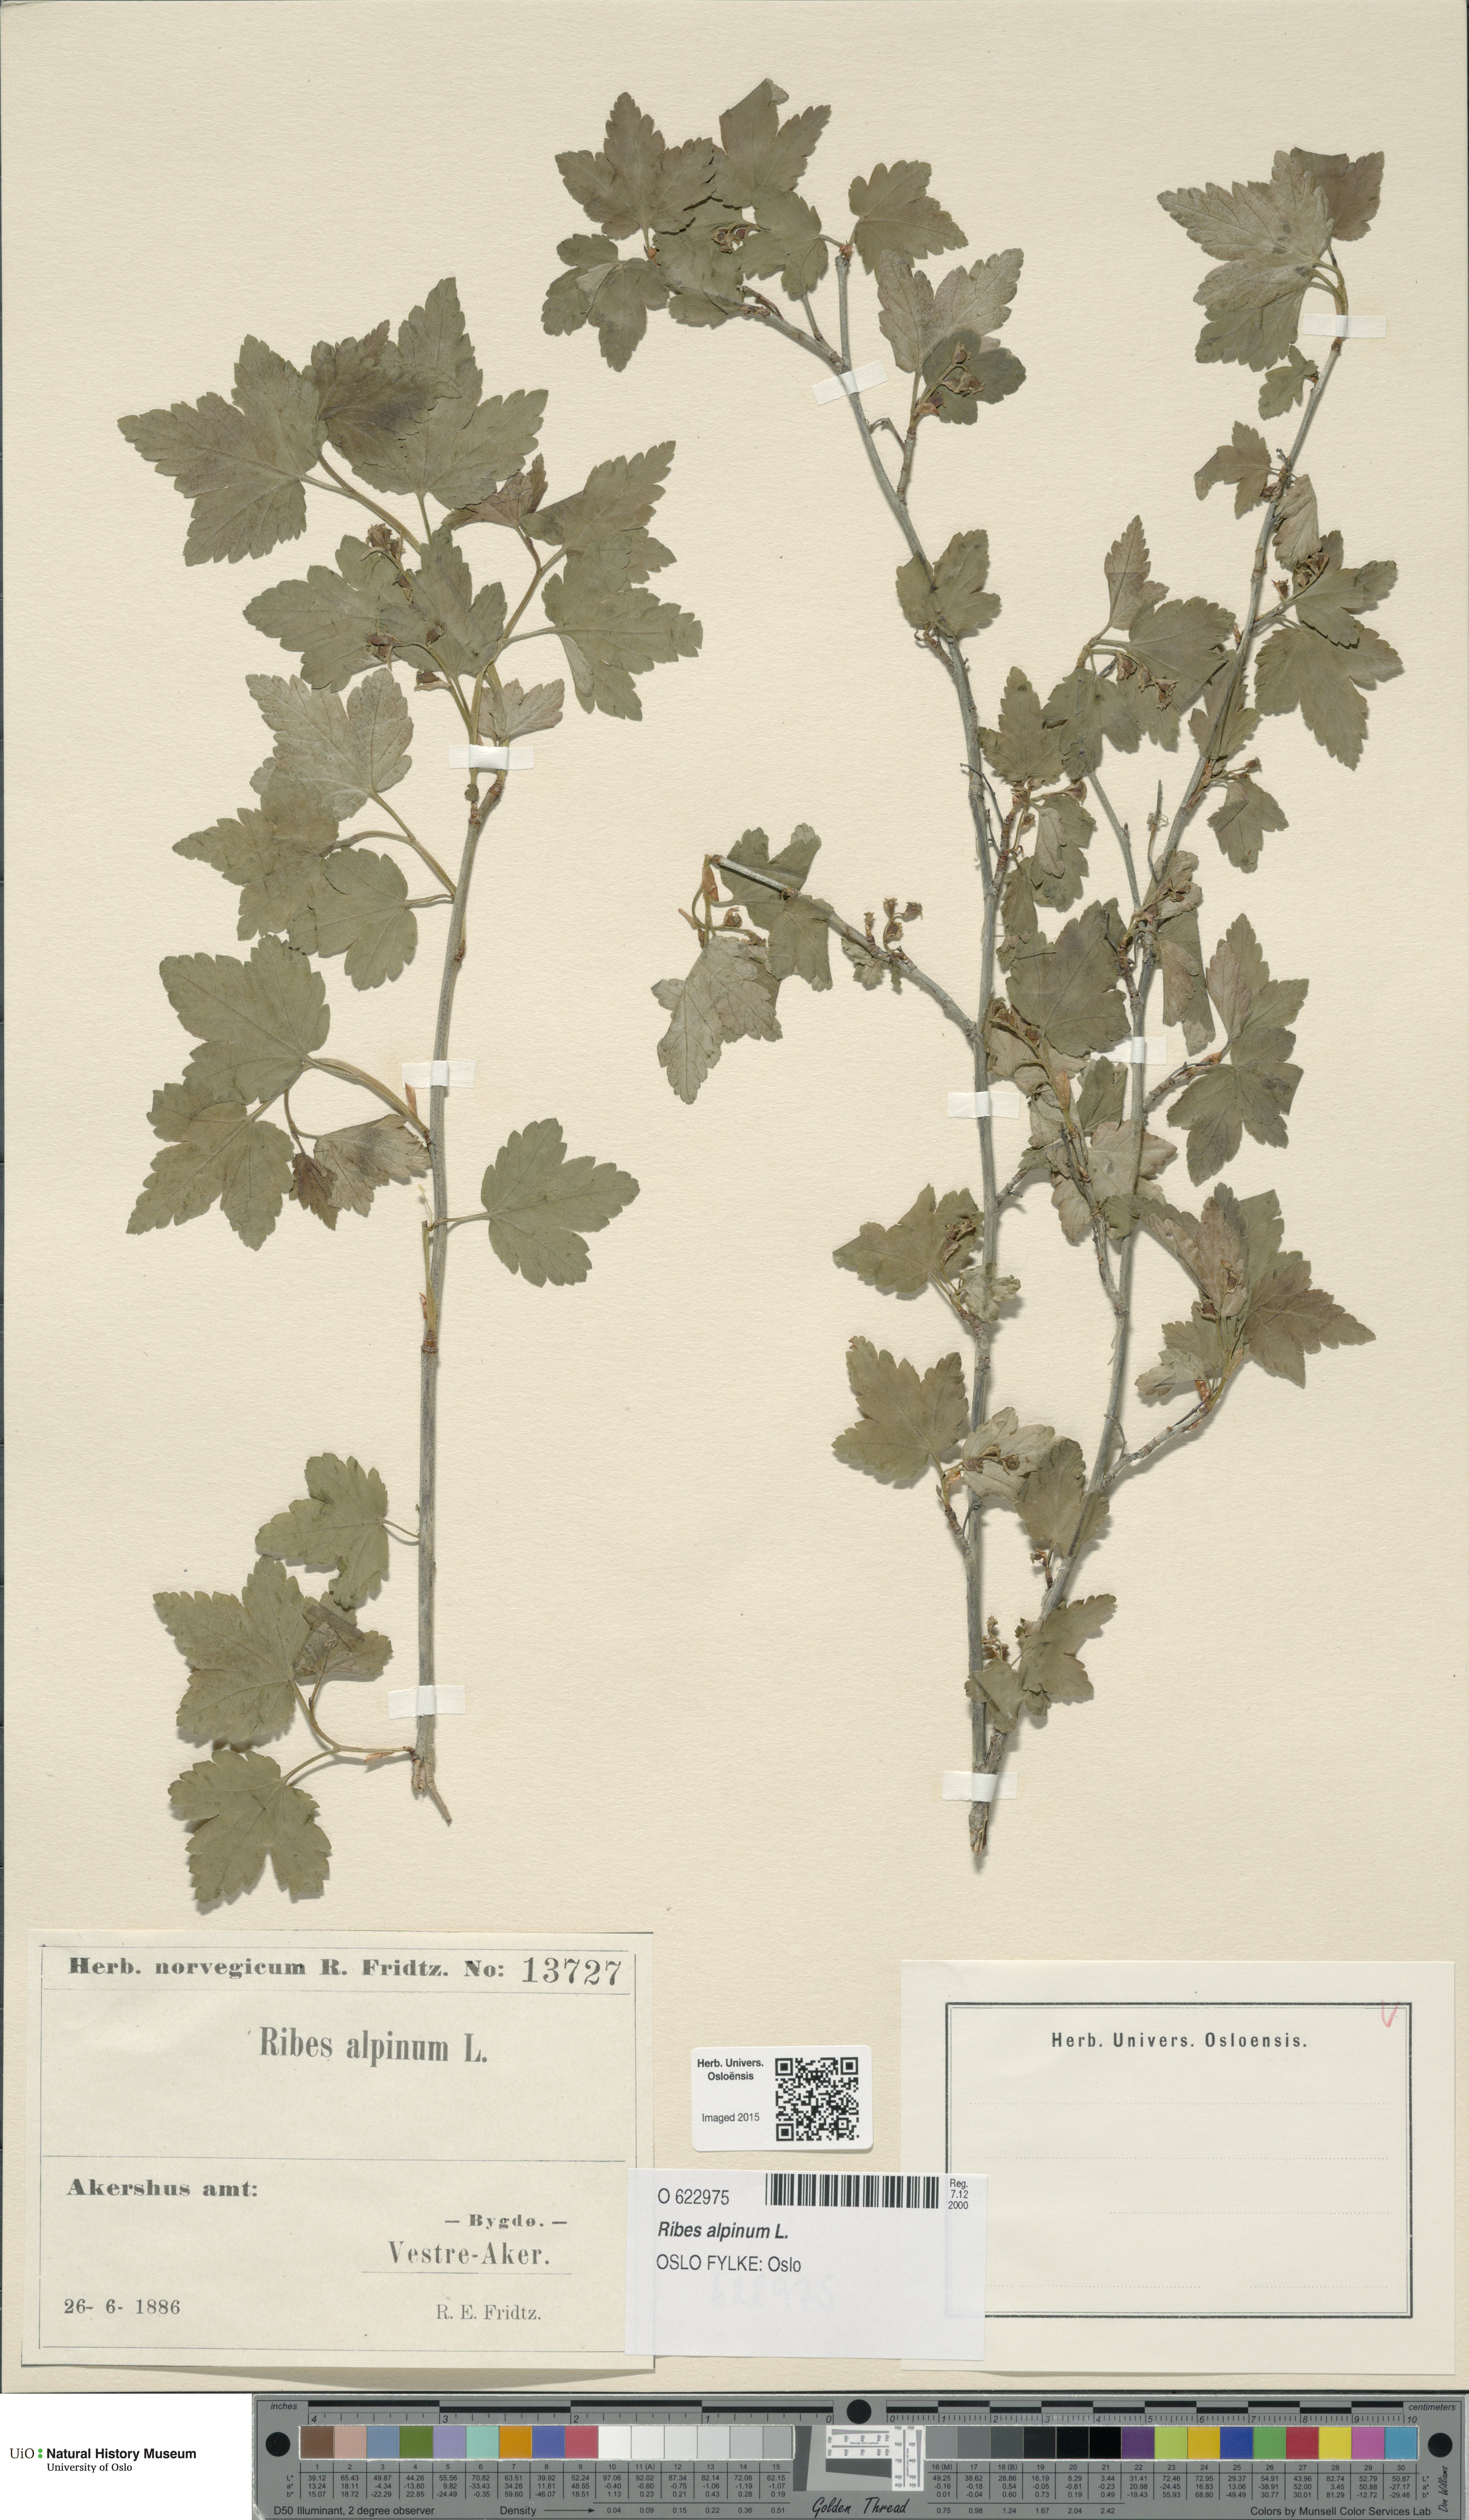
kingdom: Plantae
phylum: Tracheophyta
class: Magnoliopsida
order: Saxifragales
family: Grossulariaceae
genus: Ribes
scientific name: Ribes alpinum
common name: Alpine currant
